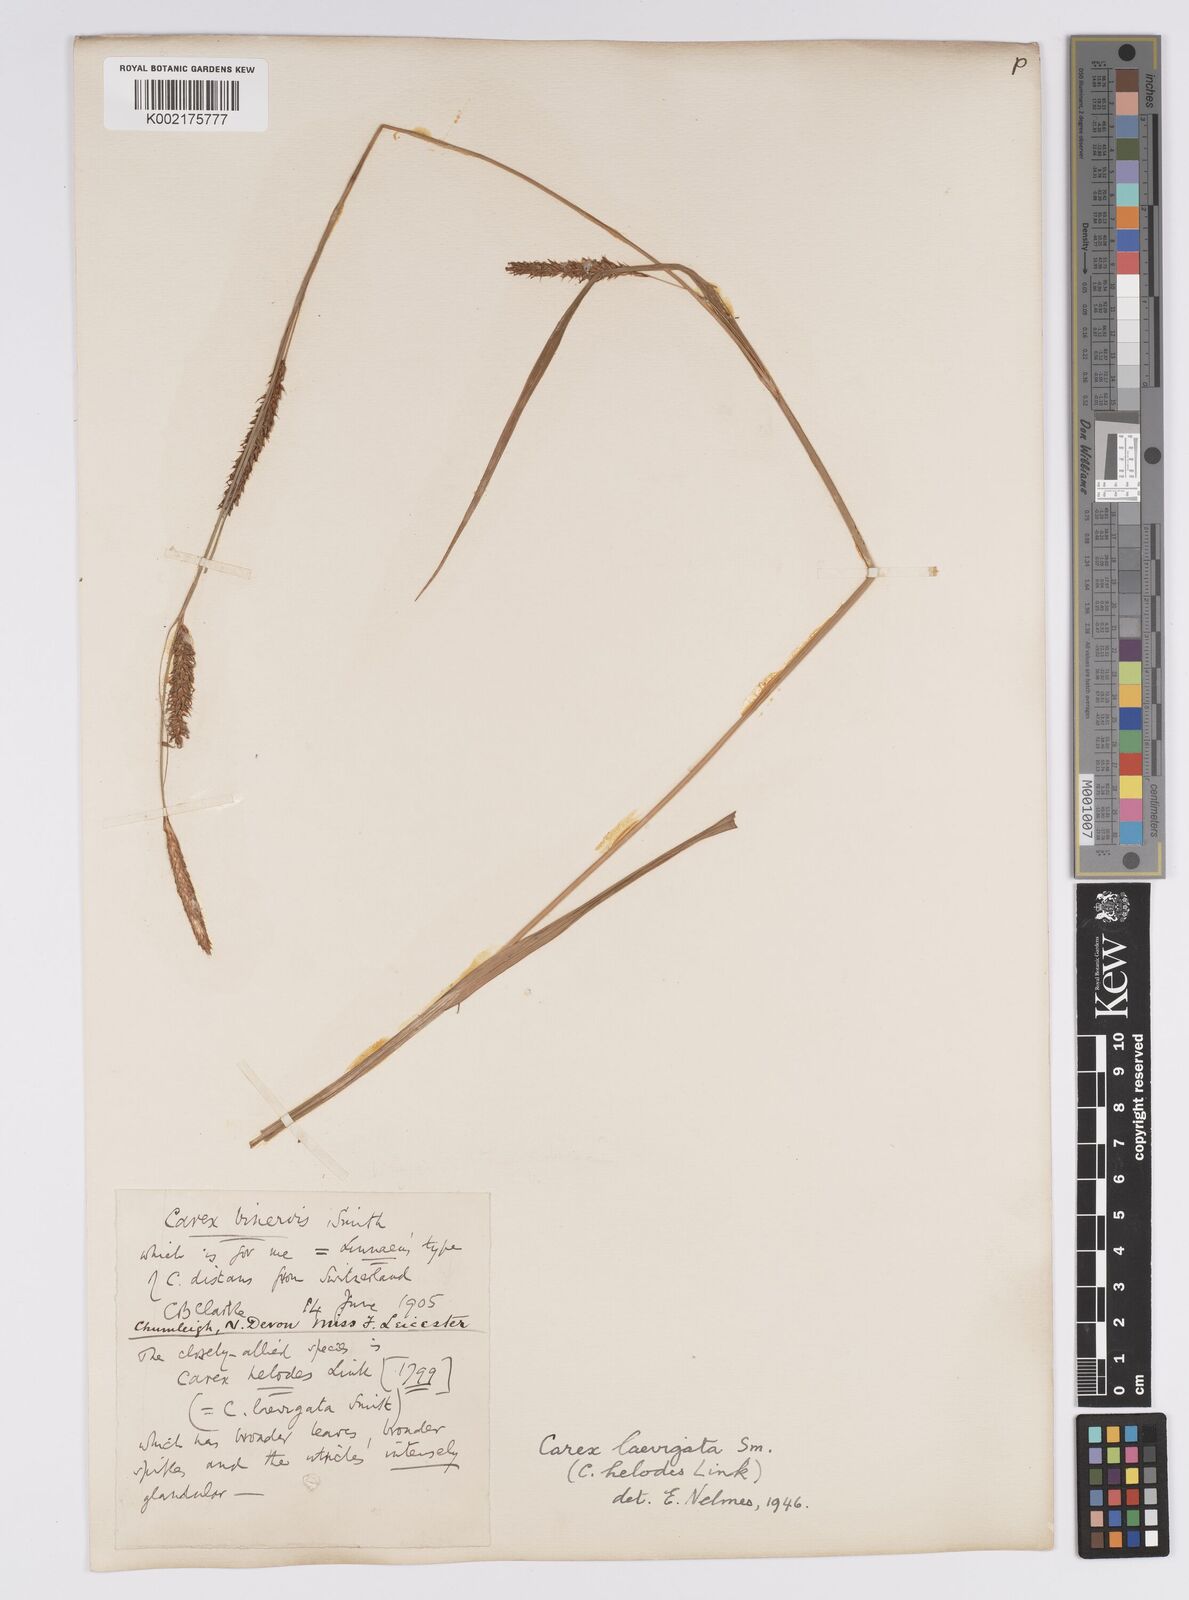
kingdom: Plantae
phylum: Tracheophyta
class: Liliopsida
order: Poales
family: Cyperaceae
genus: Carex
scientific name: Carex laevigata
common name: Smooth-stalked sedge
